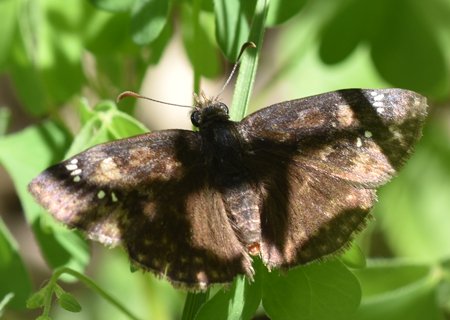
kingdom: Animalia
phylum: Arthropoda
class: Insecta
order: Lepidoptera
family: Hesperiidae
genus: Erynnis
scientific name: Erynnis
